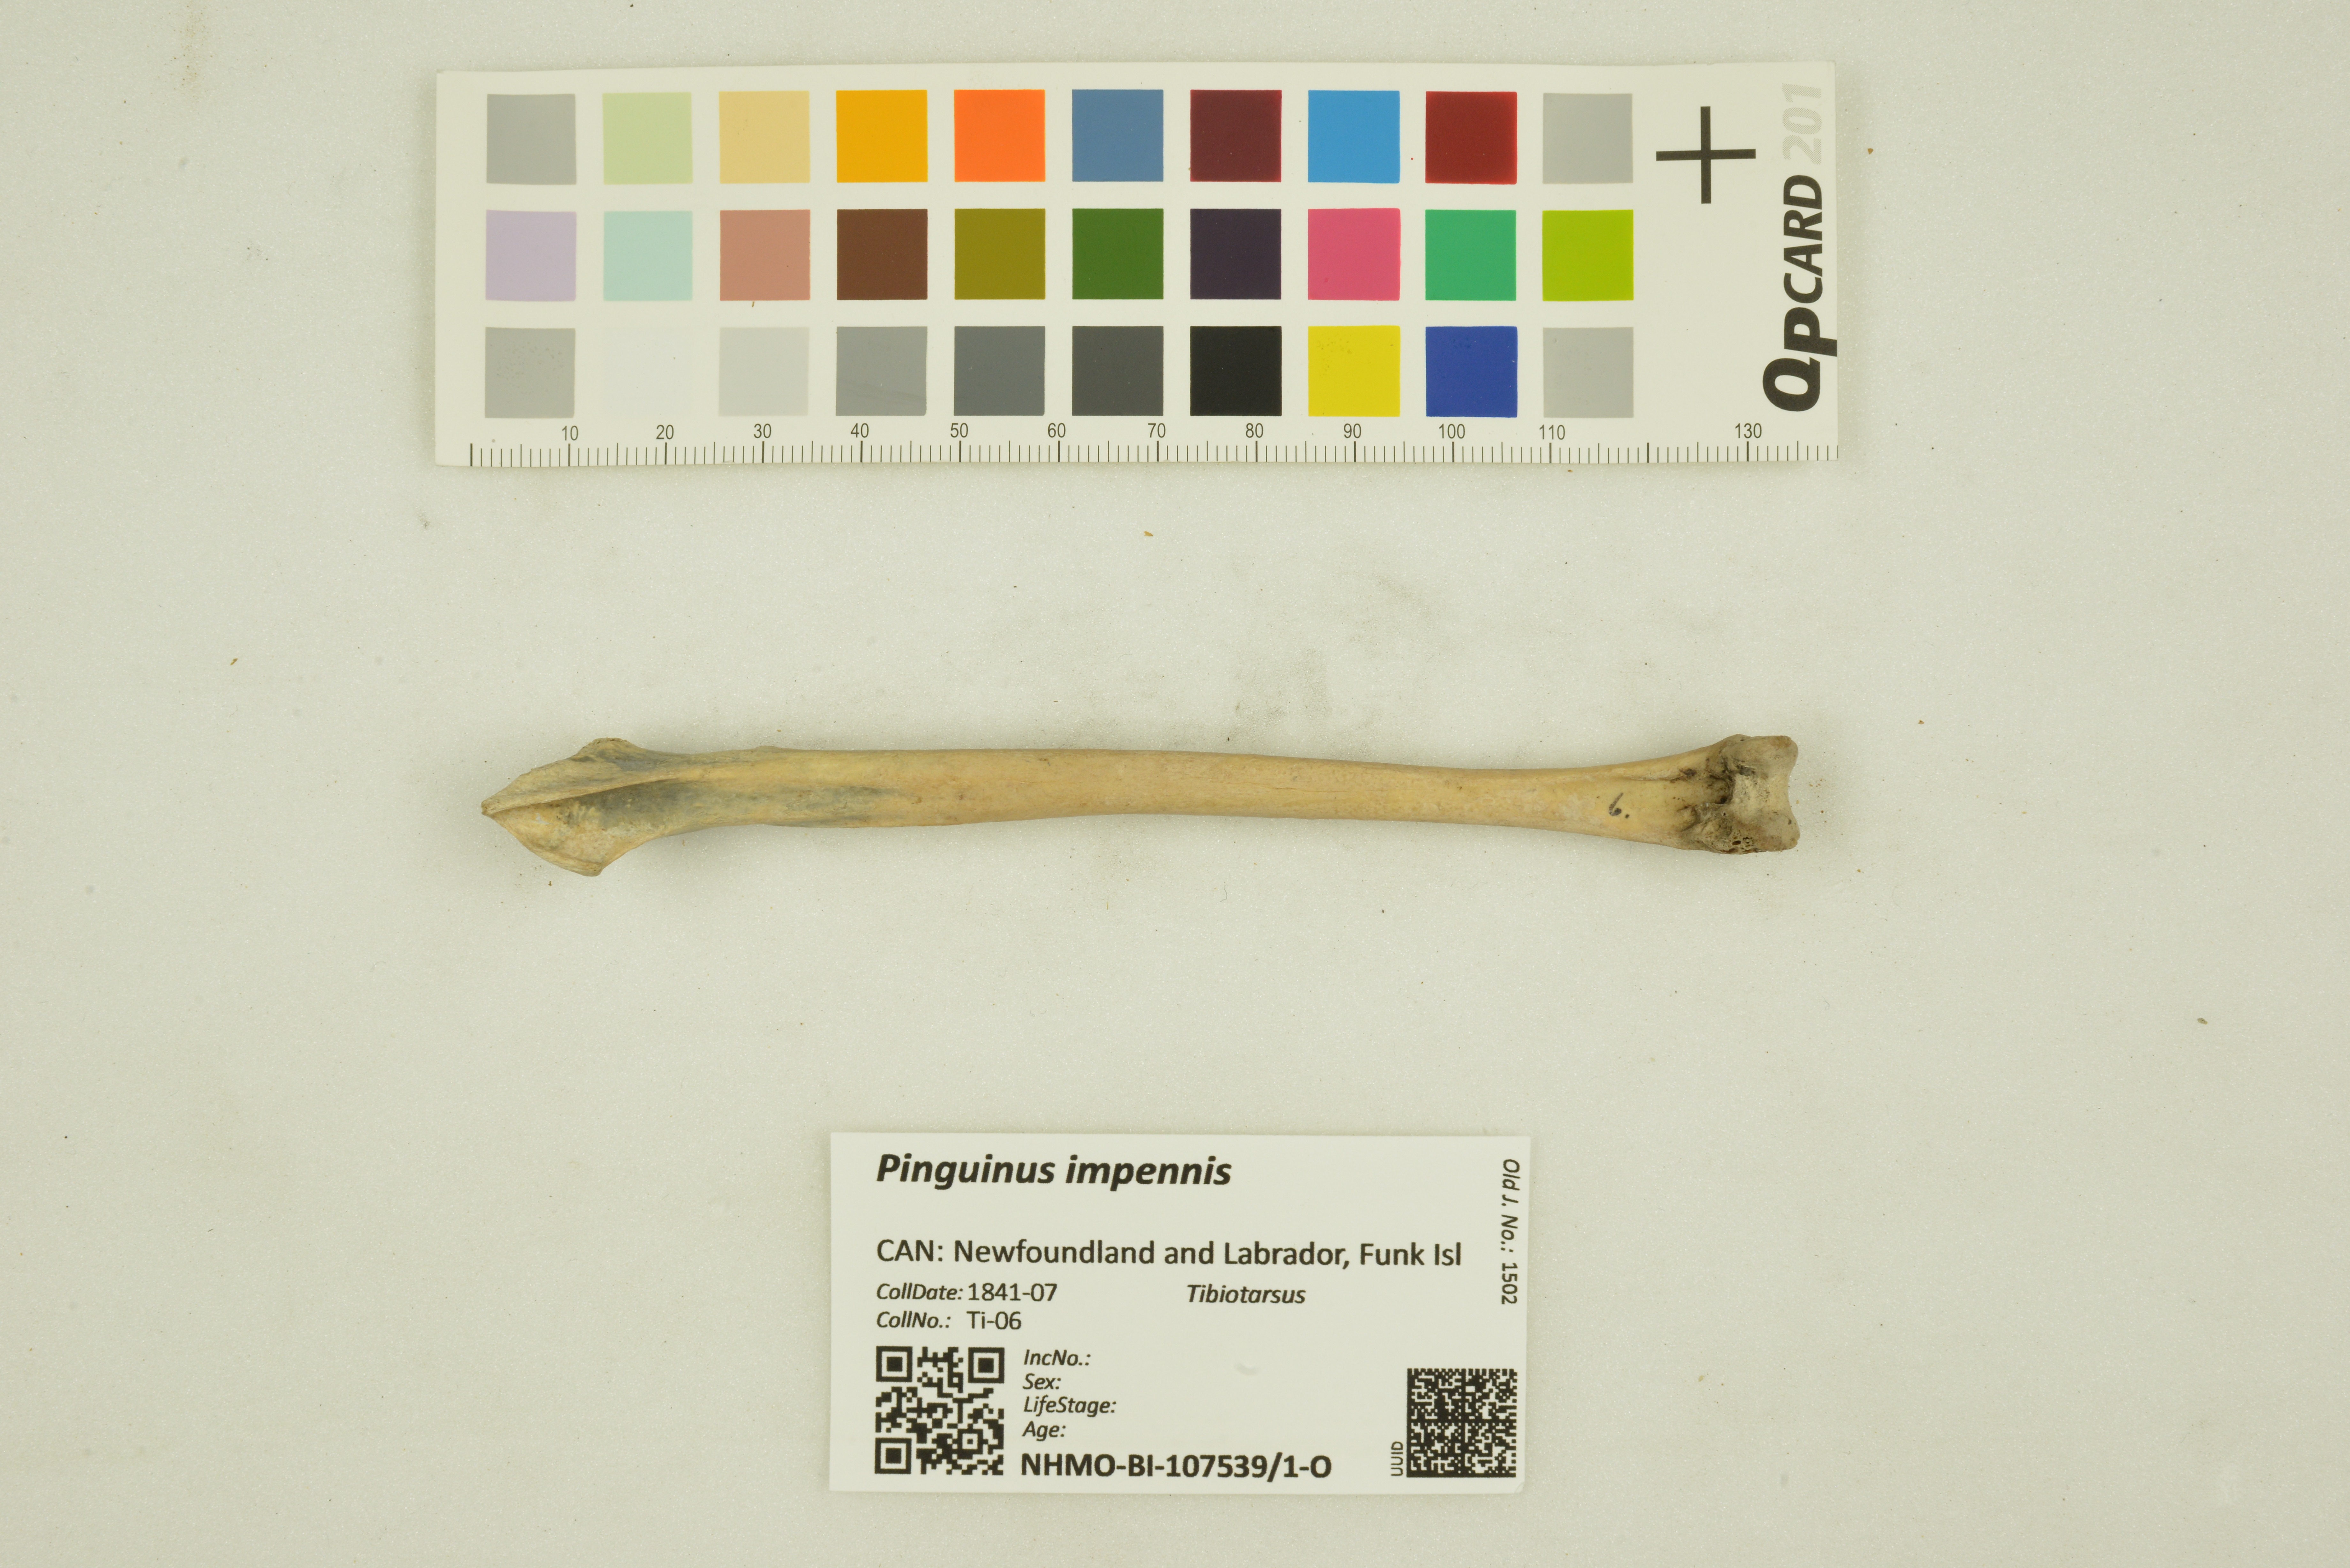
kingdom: Animalia
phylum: Chordata
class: Aves
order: Charadriiformes
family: Alcidae
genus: Pinguinus
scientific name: Pinguinus impennis
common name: Great auk
